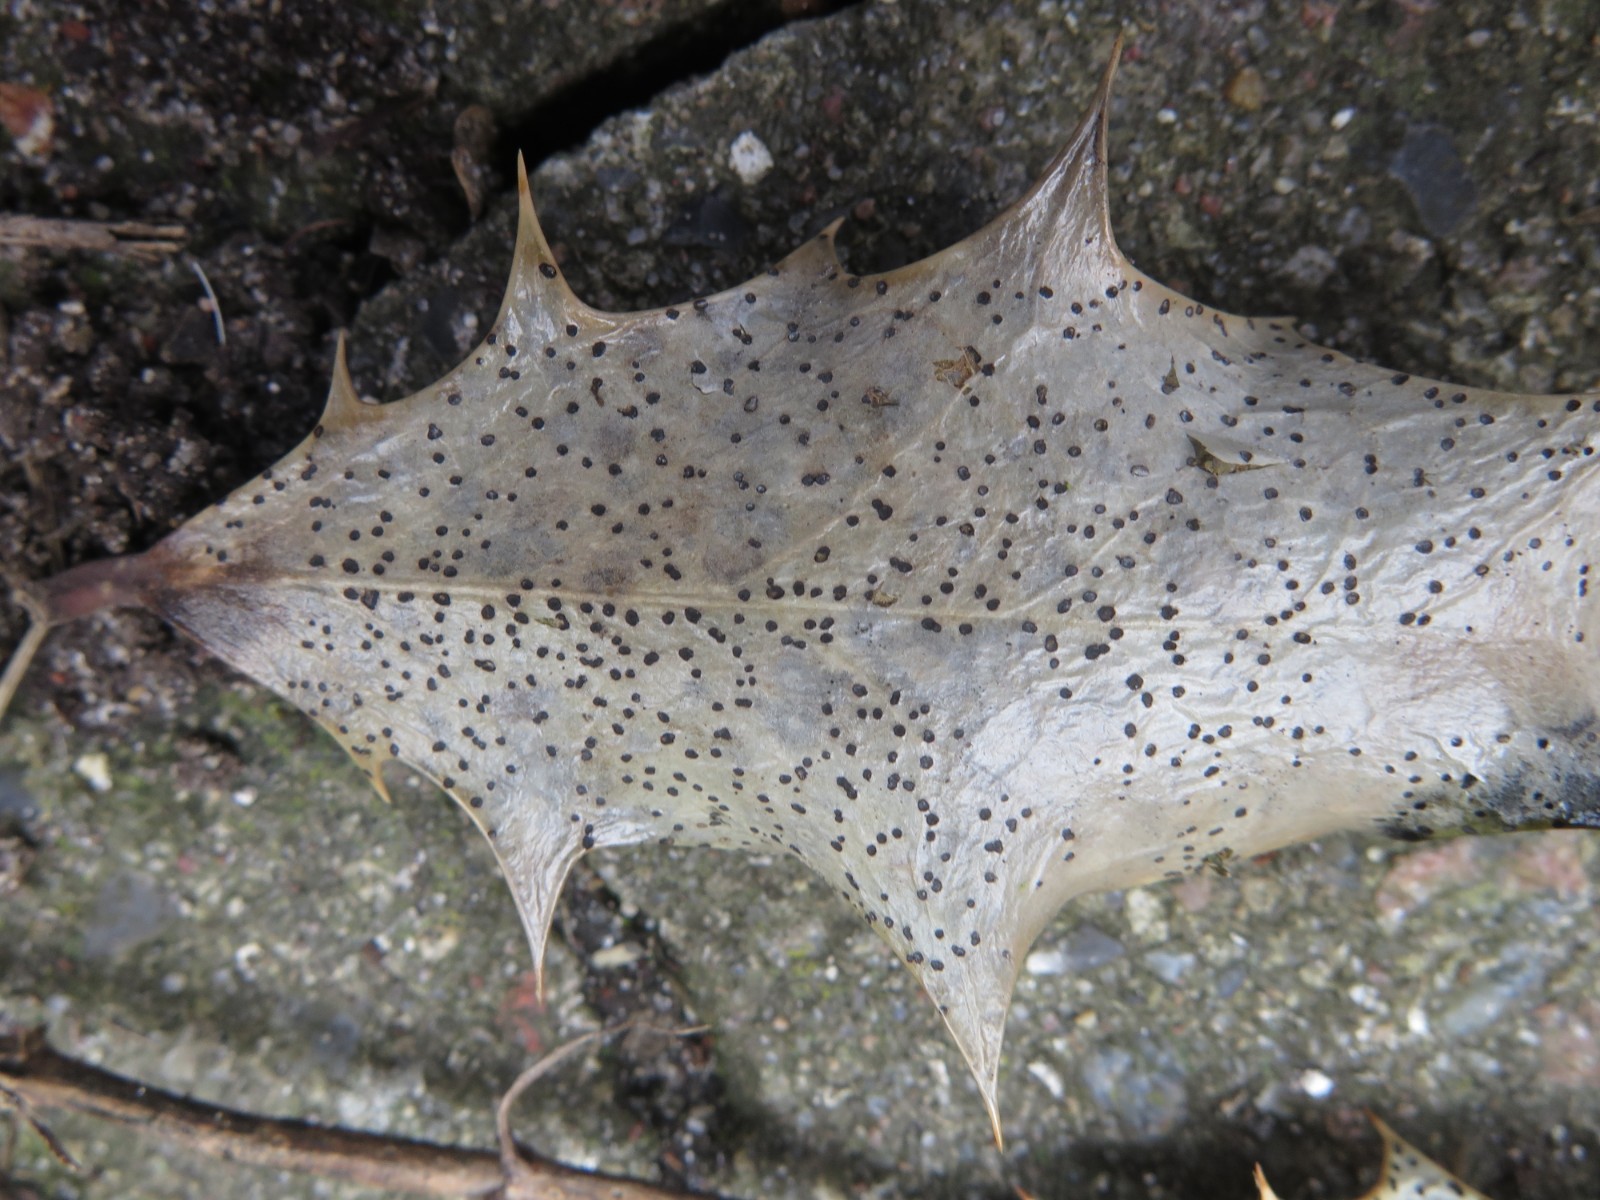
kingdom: Fungi
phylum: Ascomycota
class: Leotiomycetes
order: Helotiales
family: Cenangiaceae
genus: Trochila
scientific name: Trochila ilicina
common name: kristtorn-lågskive
